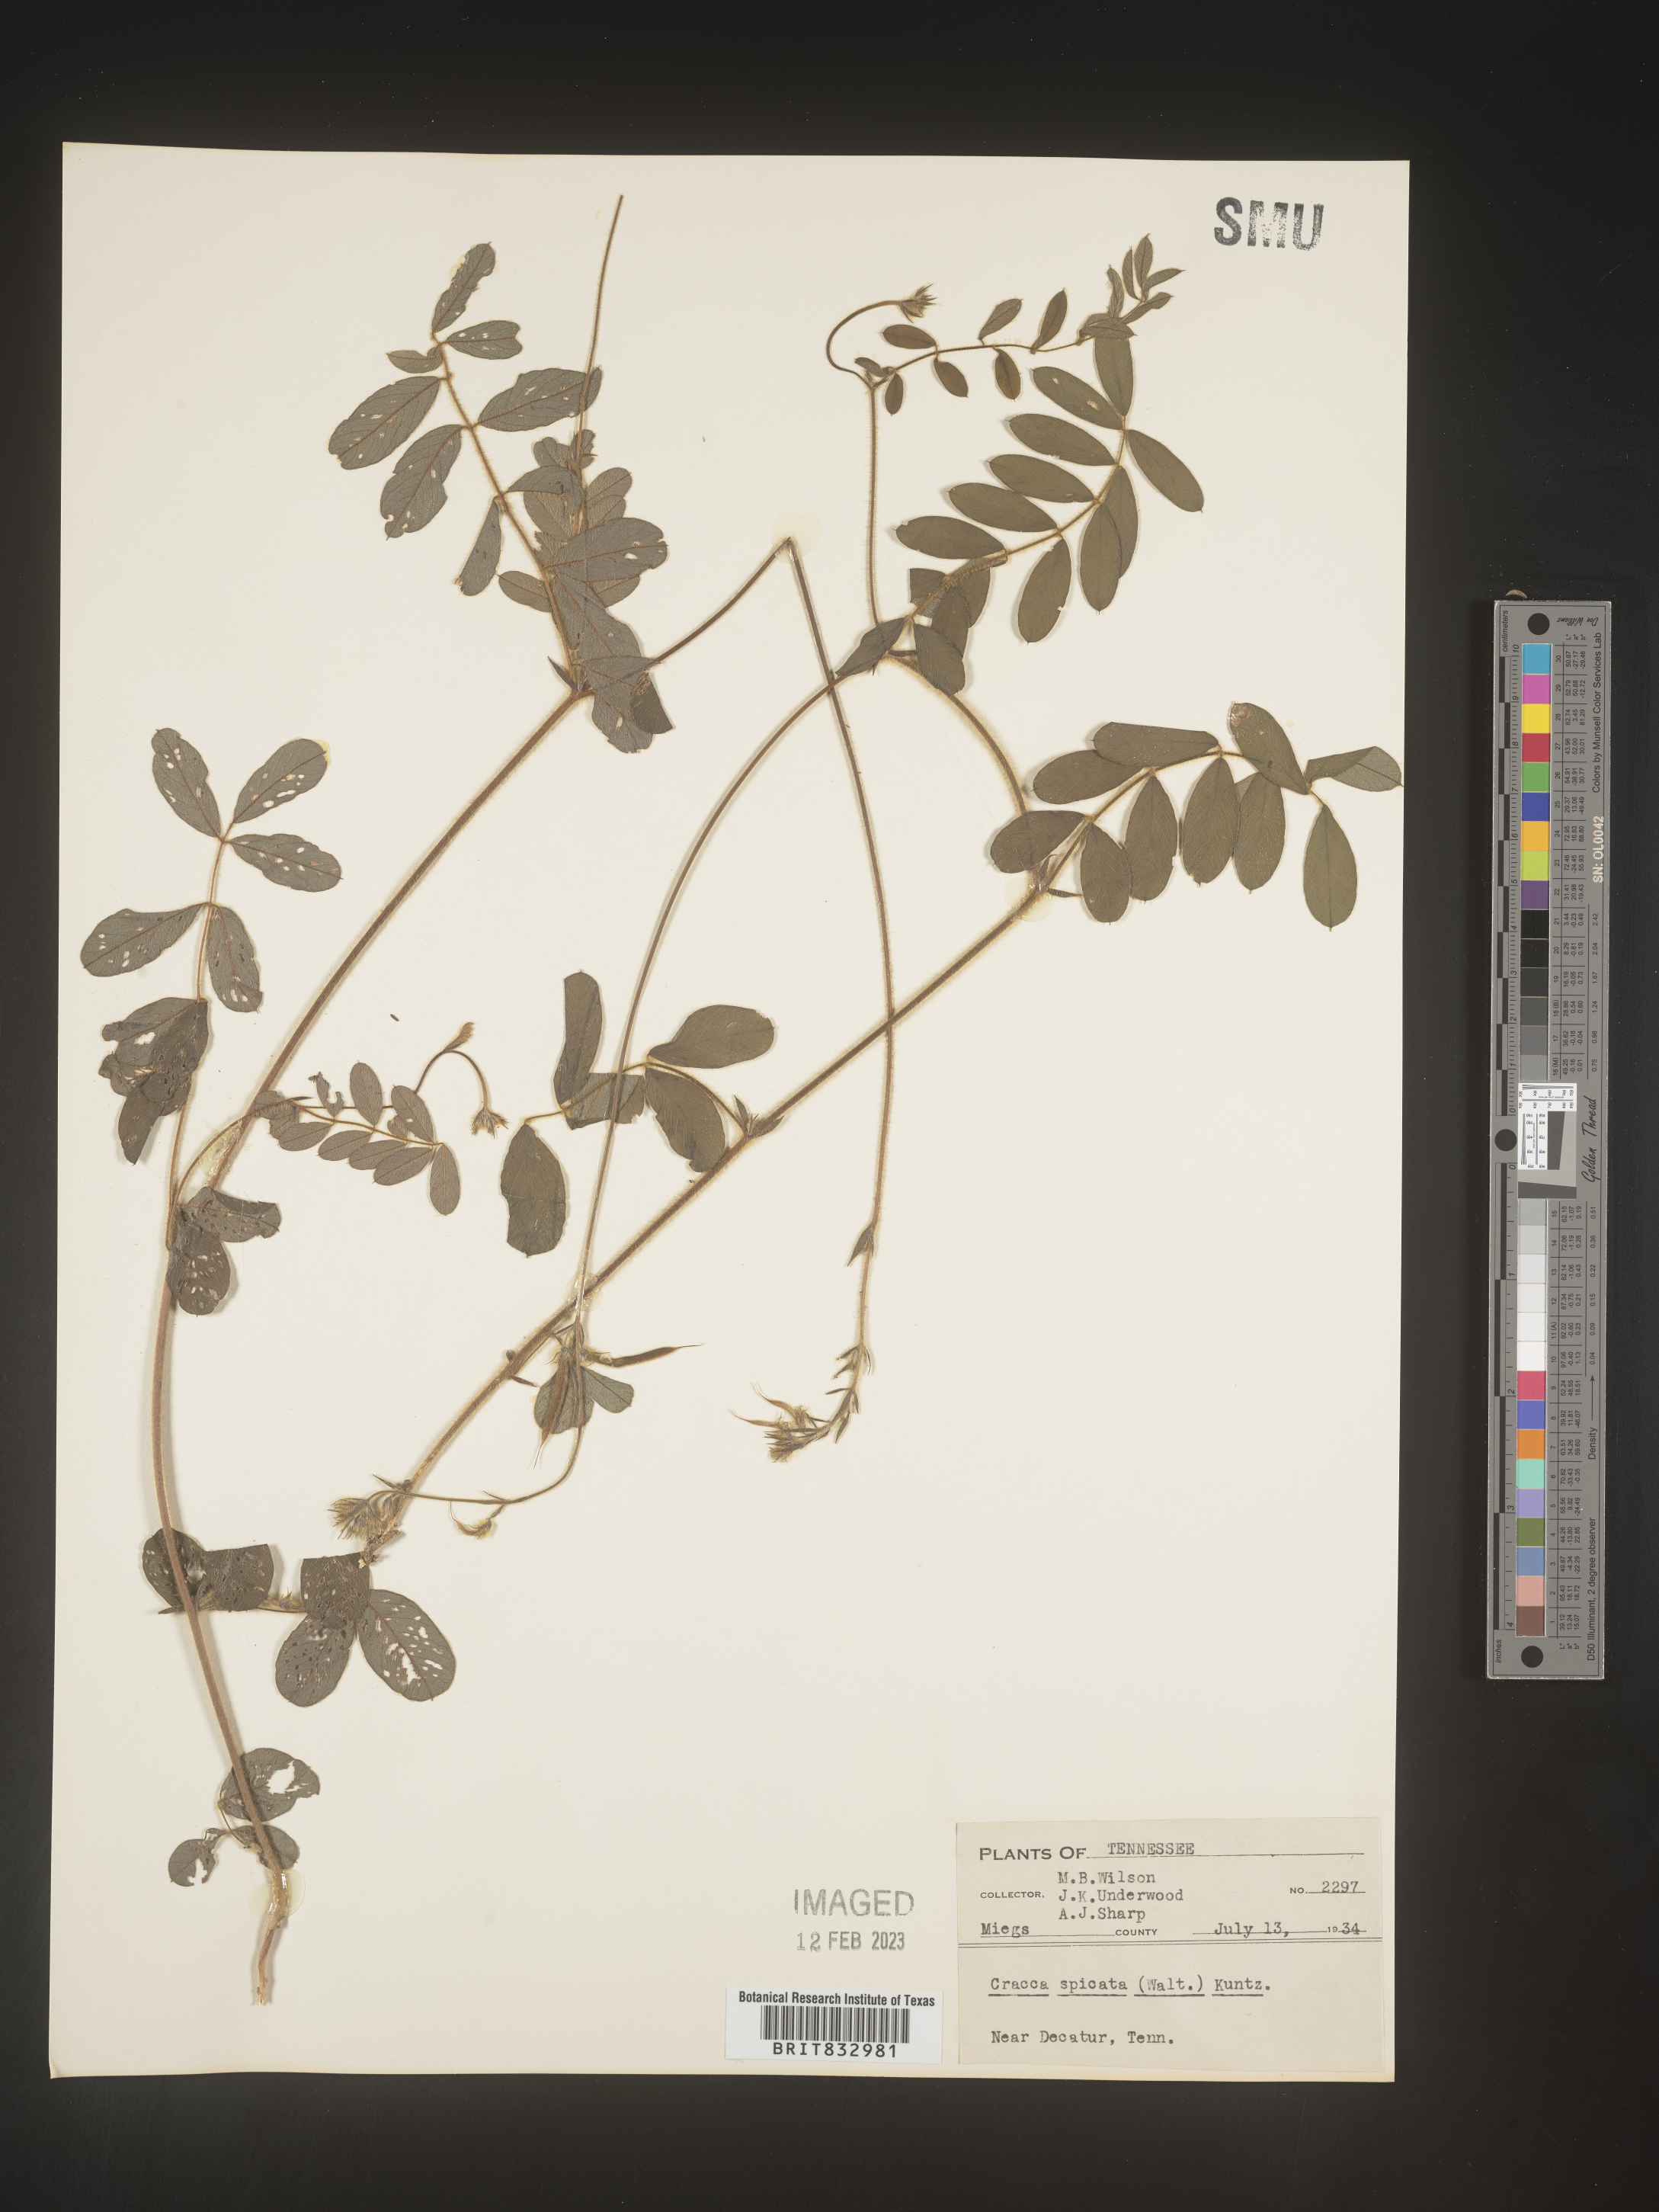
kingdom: Plantae
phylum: Tracheophyta
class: Magnoliopsida
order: Fabales
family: Fabaceae
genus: Tephrosia
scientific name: Tephrosia spicata
